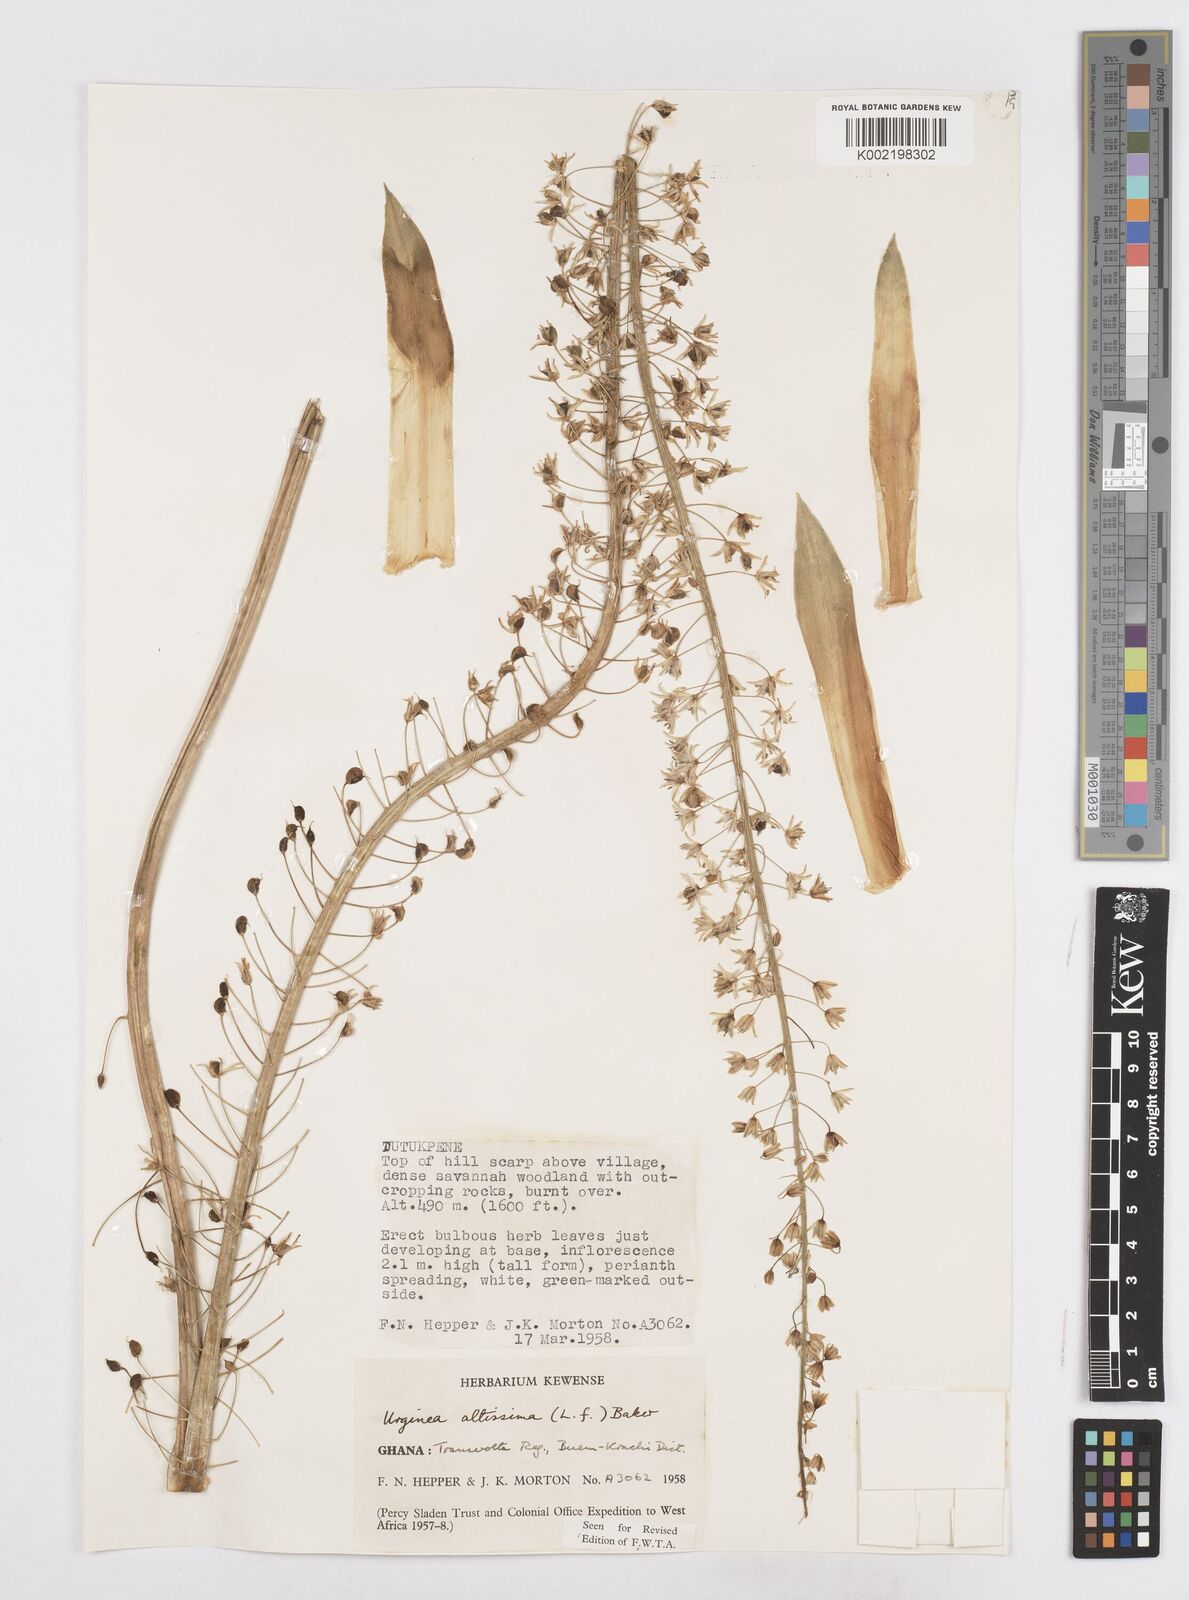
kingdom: Plantae
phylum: Tracheophyta
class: Liliopsida
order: Asparagales
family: Asparagaceae
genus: Drimia
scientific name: Drimia altissima
